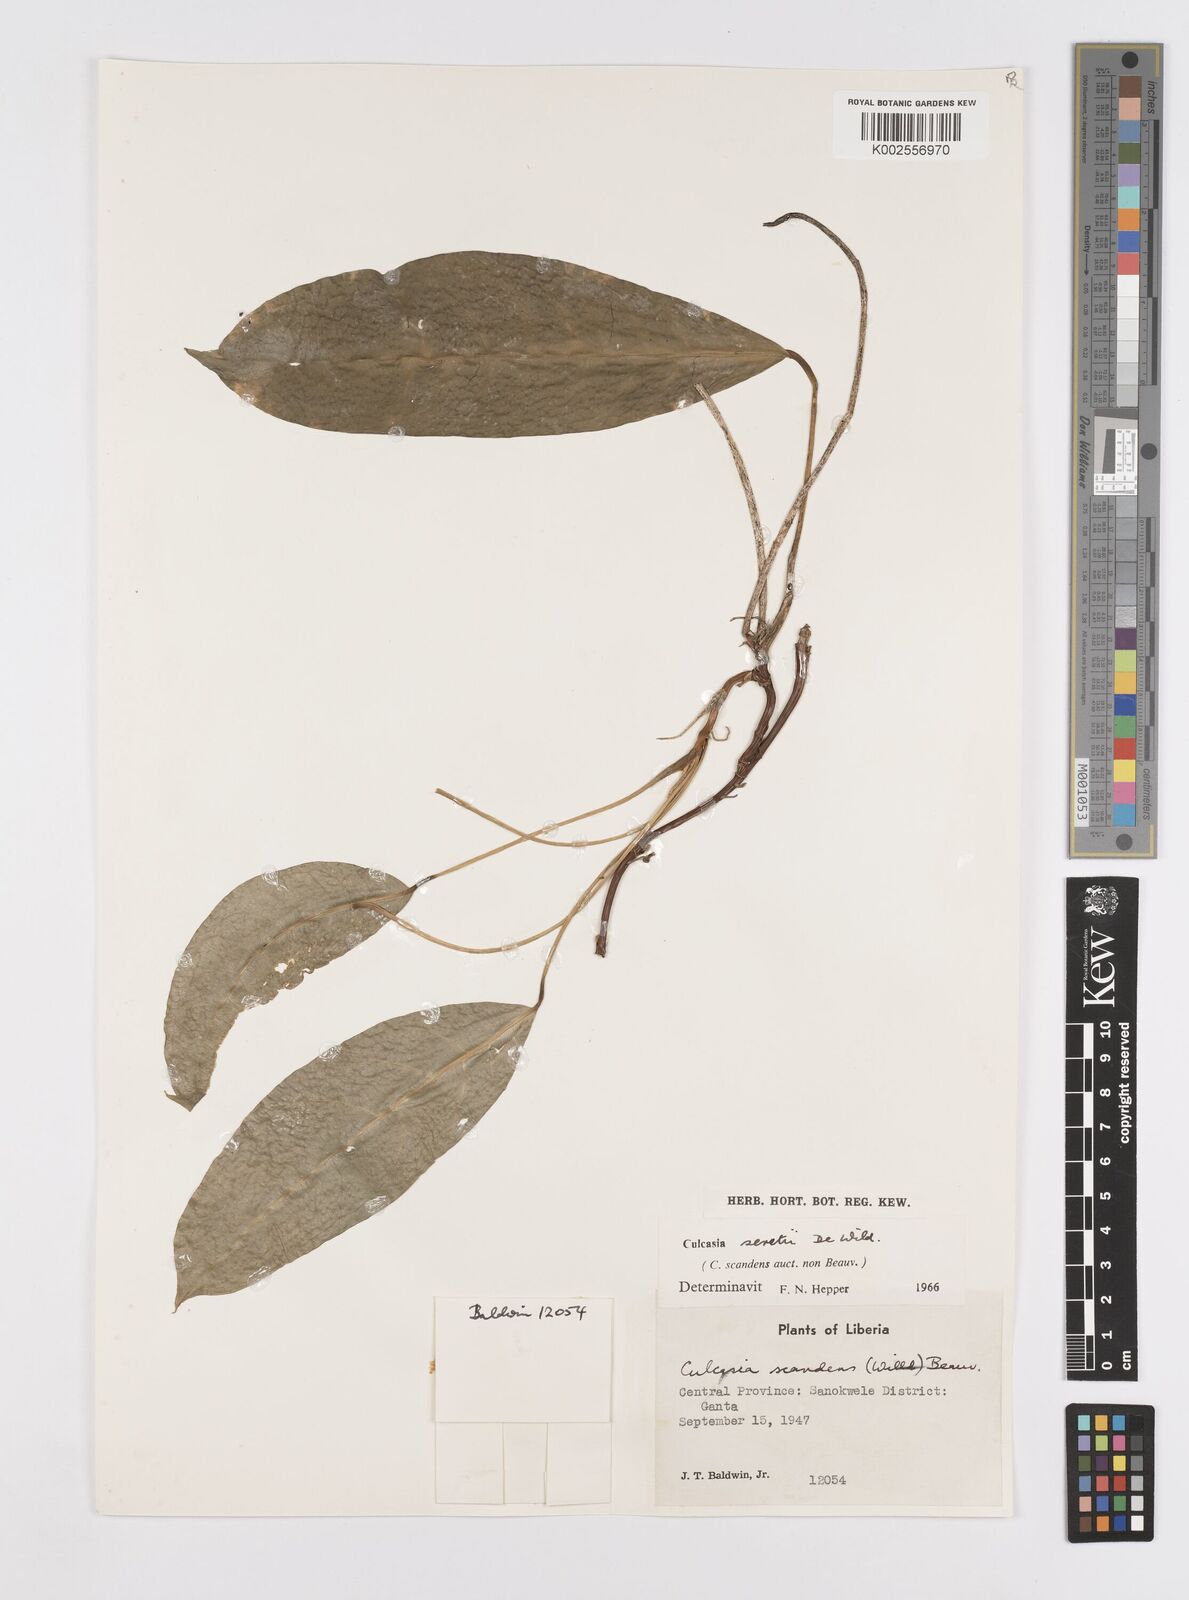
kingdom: Plantae
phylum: Tracheophyta
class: Liliopsida
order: Alismatales
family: Araceae
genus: Culcasia
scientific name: Culcasia seretii
